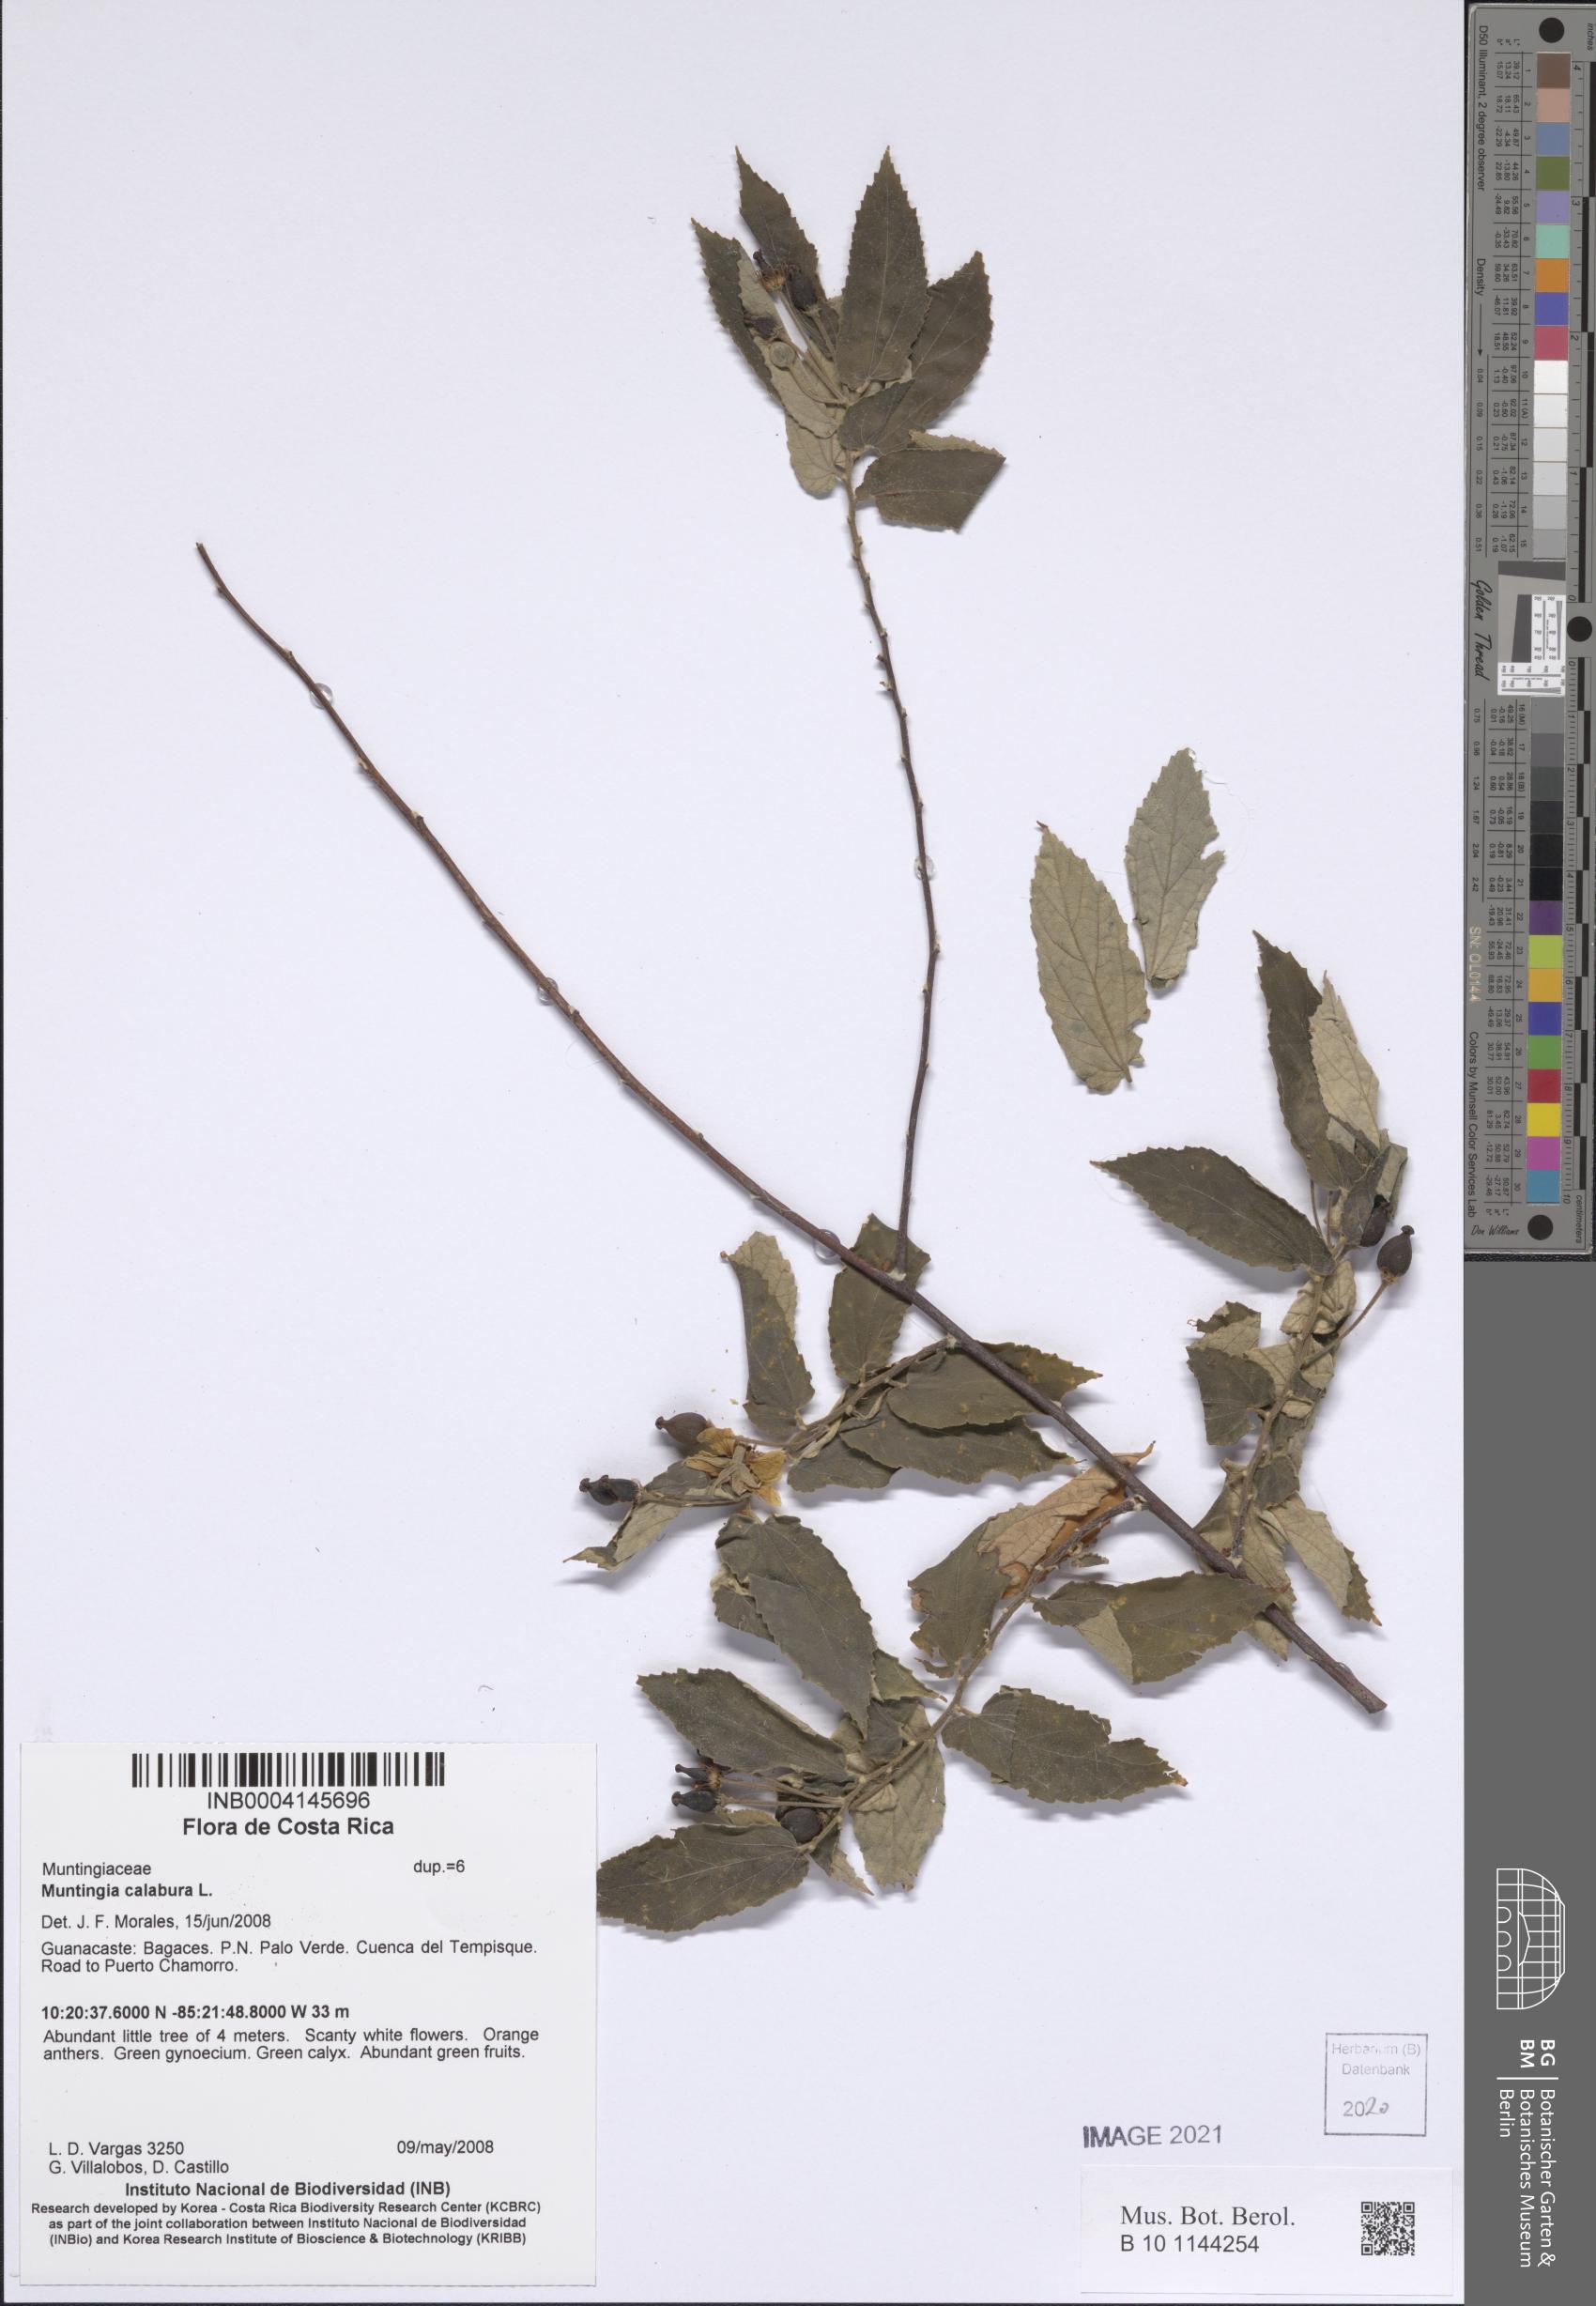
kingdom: Plantae
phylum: Tracheophyta
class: Magnoliopsida
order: Malvales
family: Muntingiaceae
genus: Muntingia
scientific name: Muntingia calabura
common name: Strawberrytree
